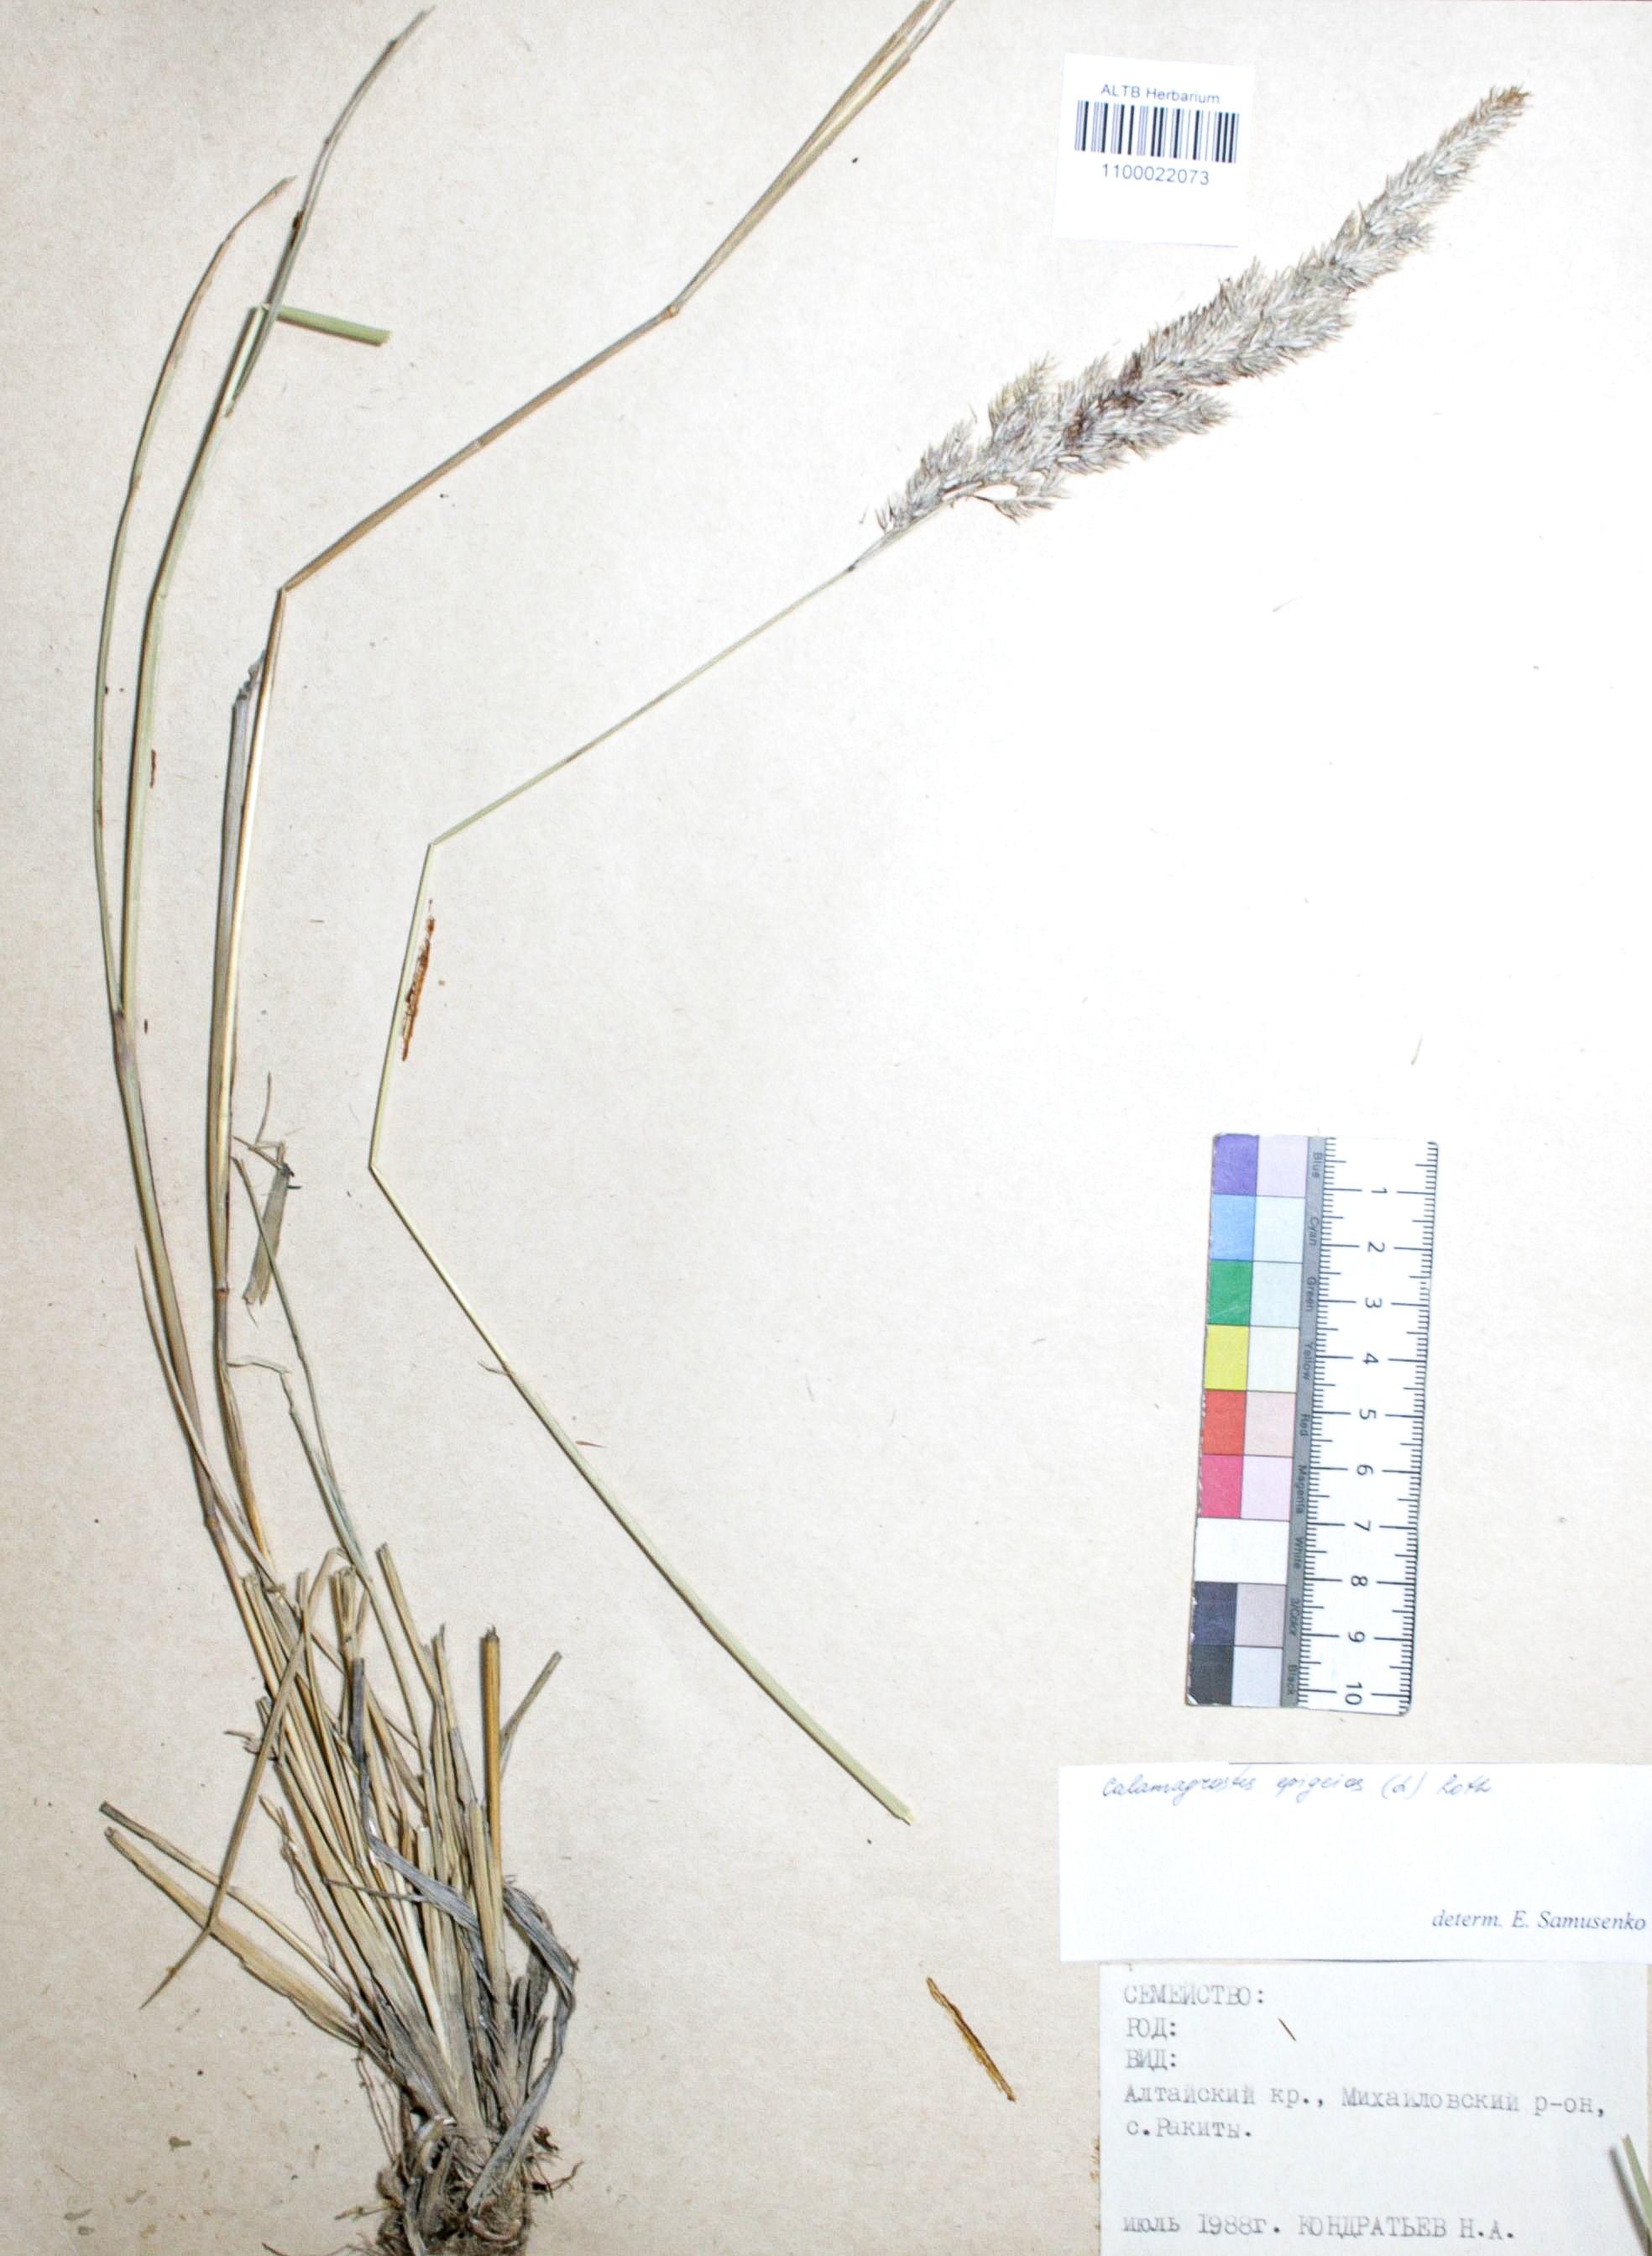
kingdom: Plantae
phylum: Tracheophyta
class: Liliopsida
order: Poales
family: Poaceae
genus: Calamagrostis
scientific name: Calamagrostis epigejos
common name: Wood small-reed
